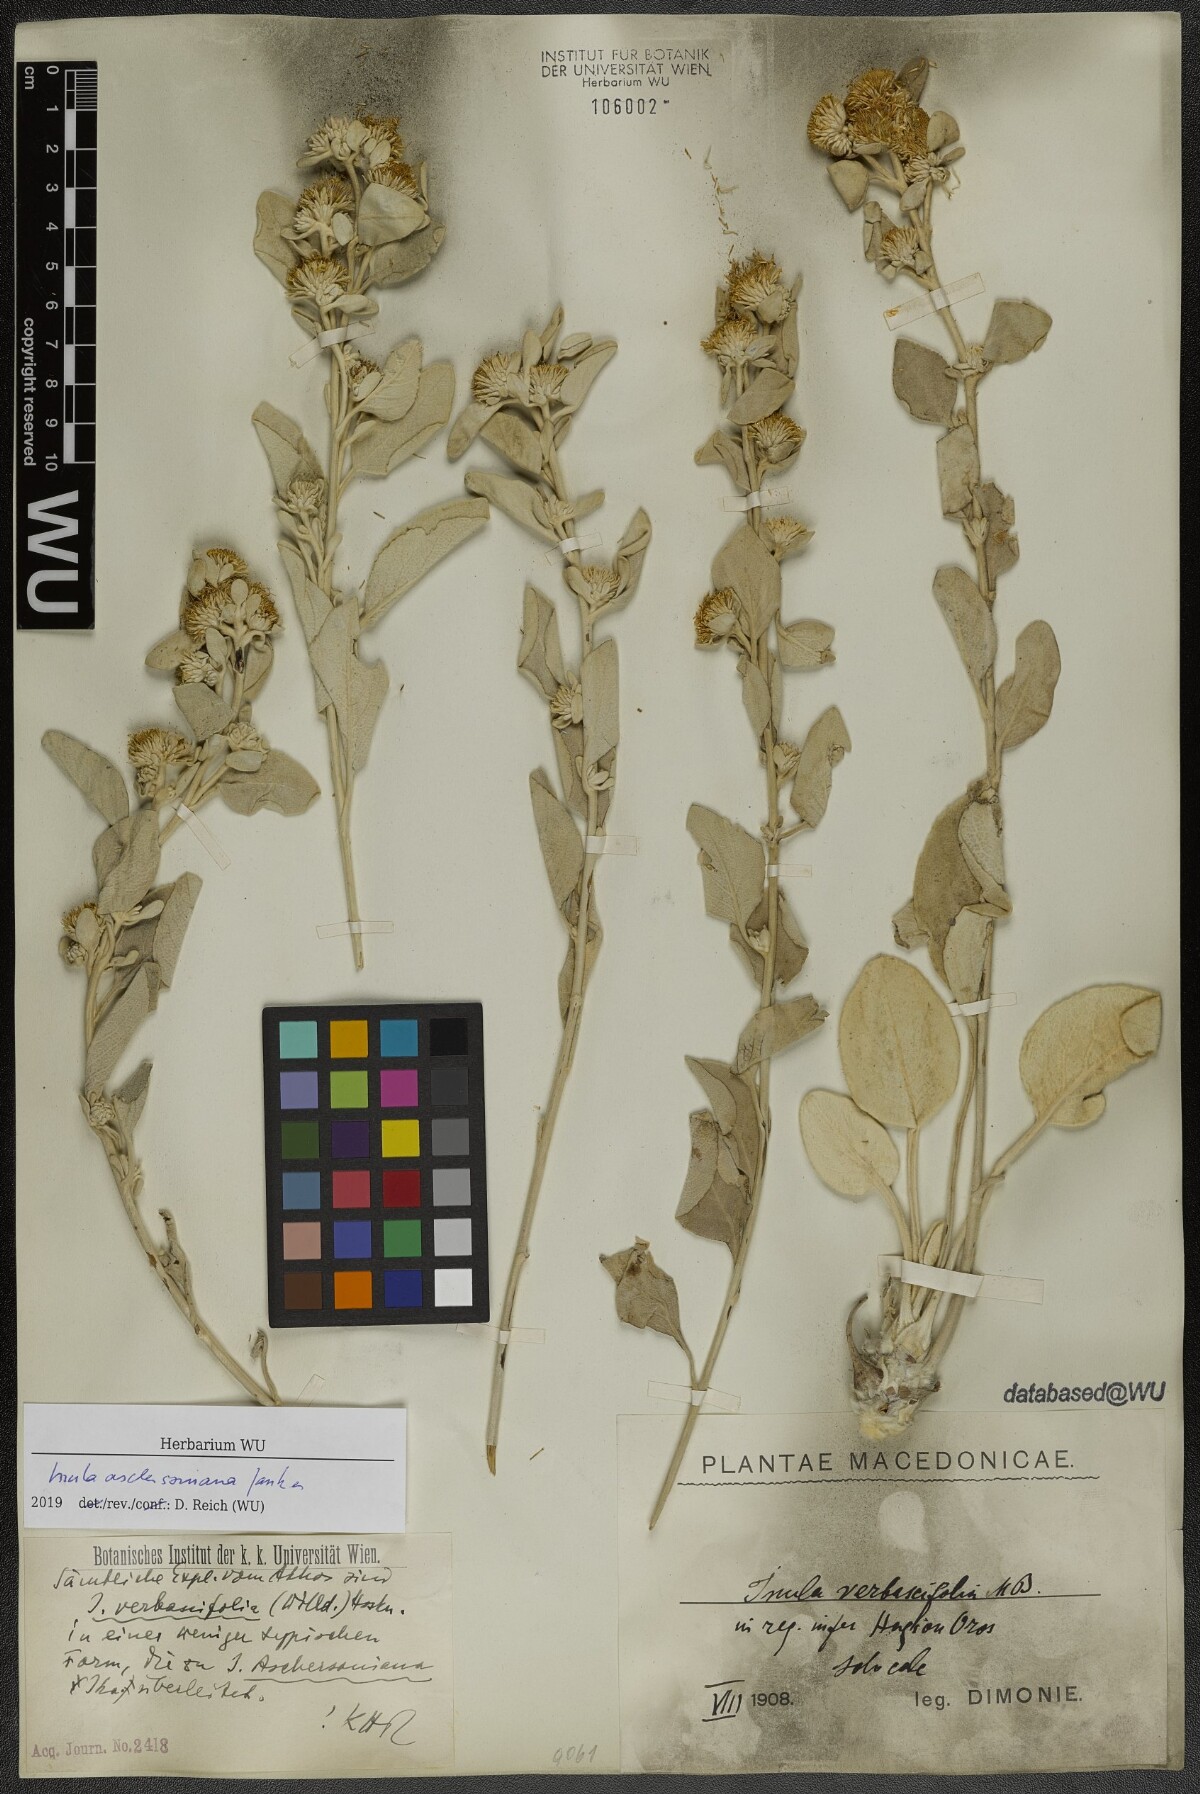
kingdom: Plantae
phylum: Tracheophyta
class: Magnoliopsida
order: Asterales
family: Asteraceae
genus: Pentanema
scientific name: Pentanema verbascifolium
